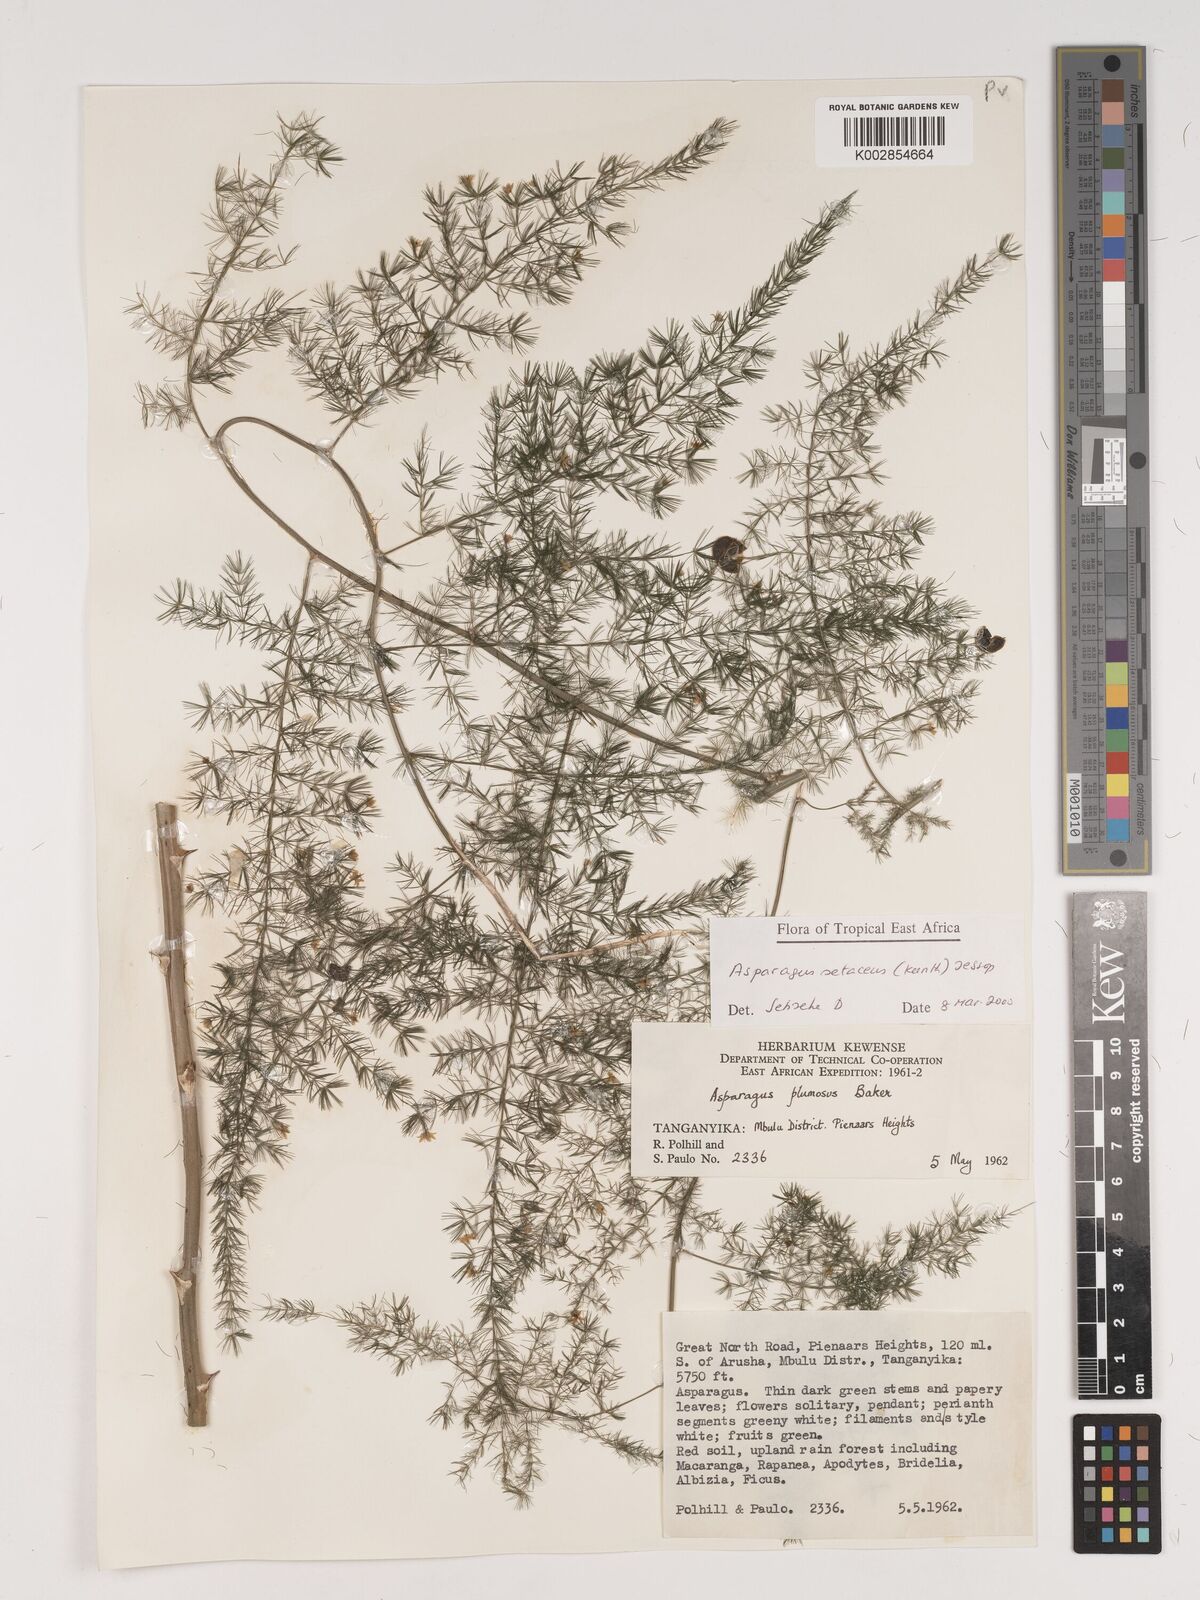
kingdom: Plantae
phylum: Tracheophyta
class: Liliopsida
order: Asparagales
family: Asparagaceae
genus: Asparagus
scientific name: Asparagus setaceus
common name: Common asparagus fern
